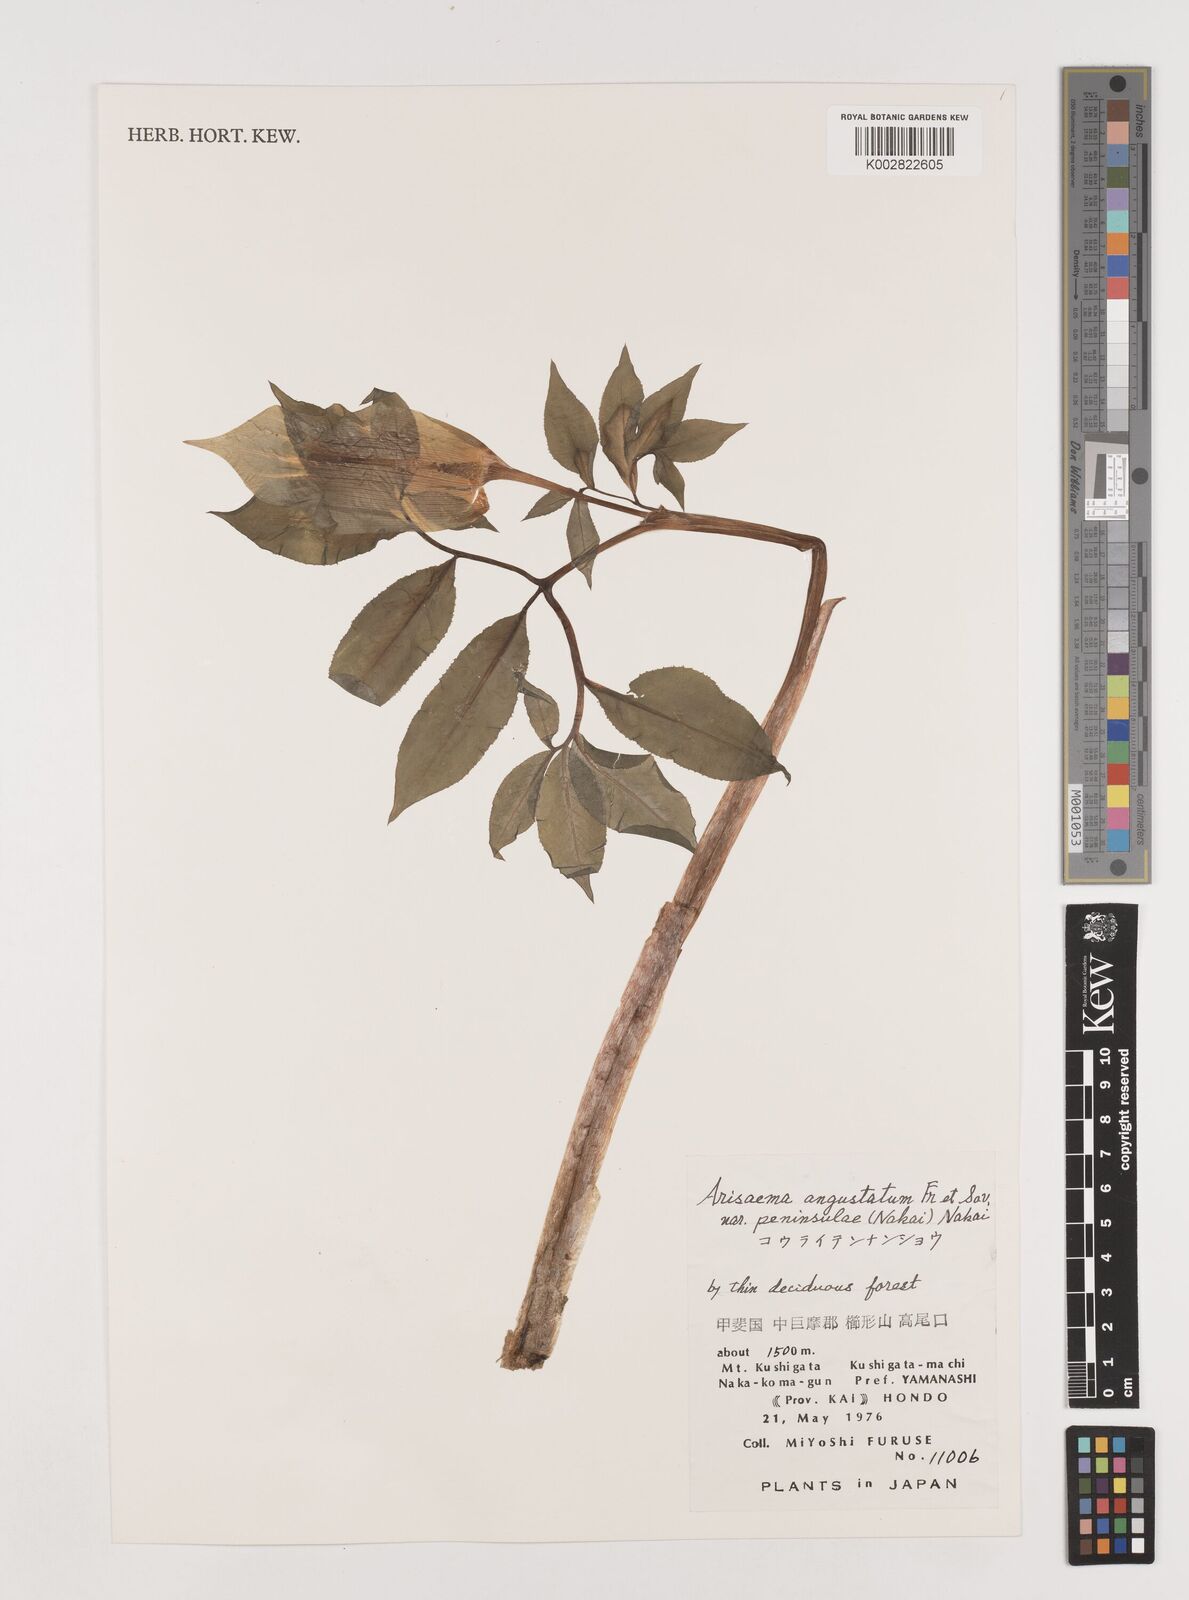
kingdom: Plantae
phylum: Tracheophyta
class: Liliopsida
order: Alismatales
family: Araceae
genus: Arisaema
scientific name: Arisaema serratum
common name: Japanese arisaema
